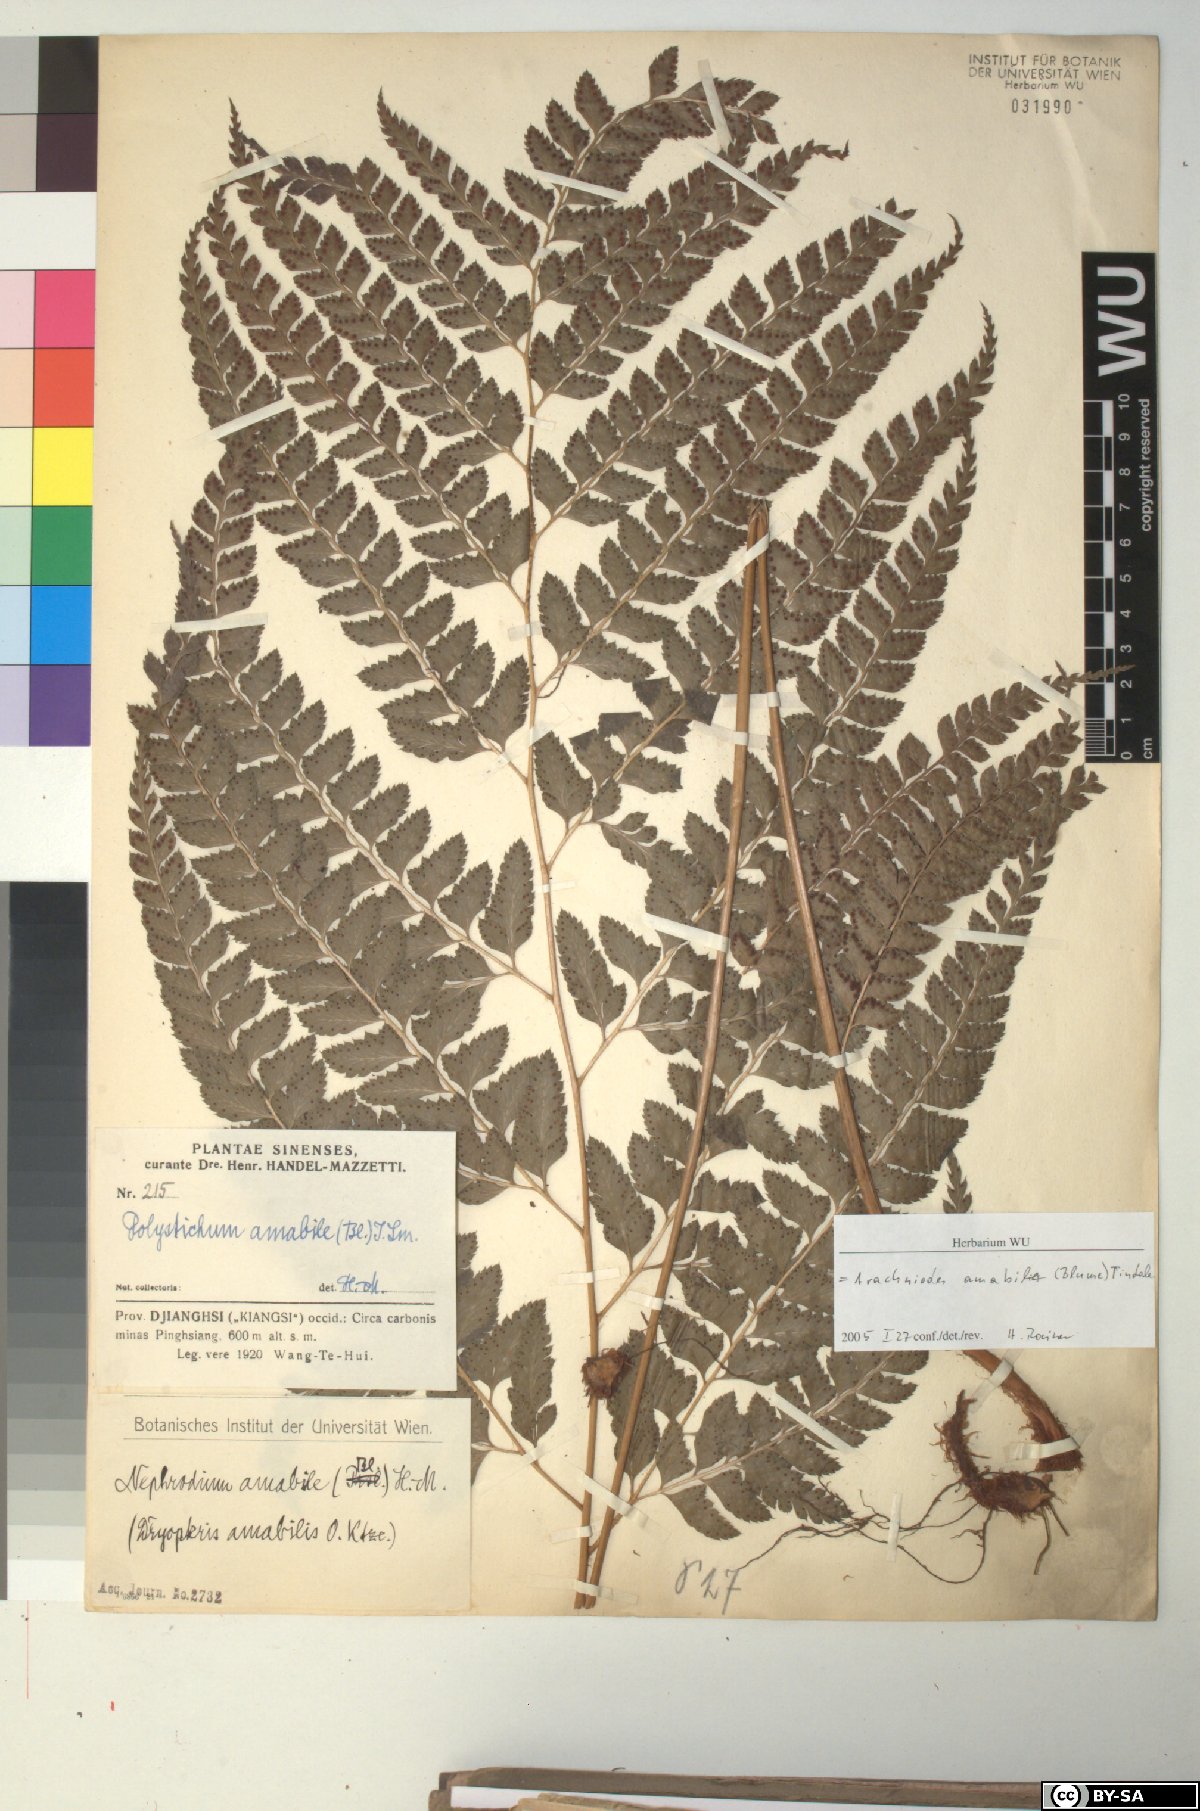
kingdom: Plantae
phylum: Tracheophyta
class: Polypodiopsida
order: Polypodiales
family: Dryopteridaceae
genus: Arachniodes
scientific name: Arachniodes amabilis
